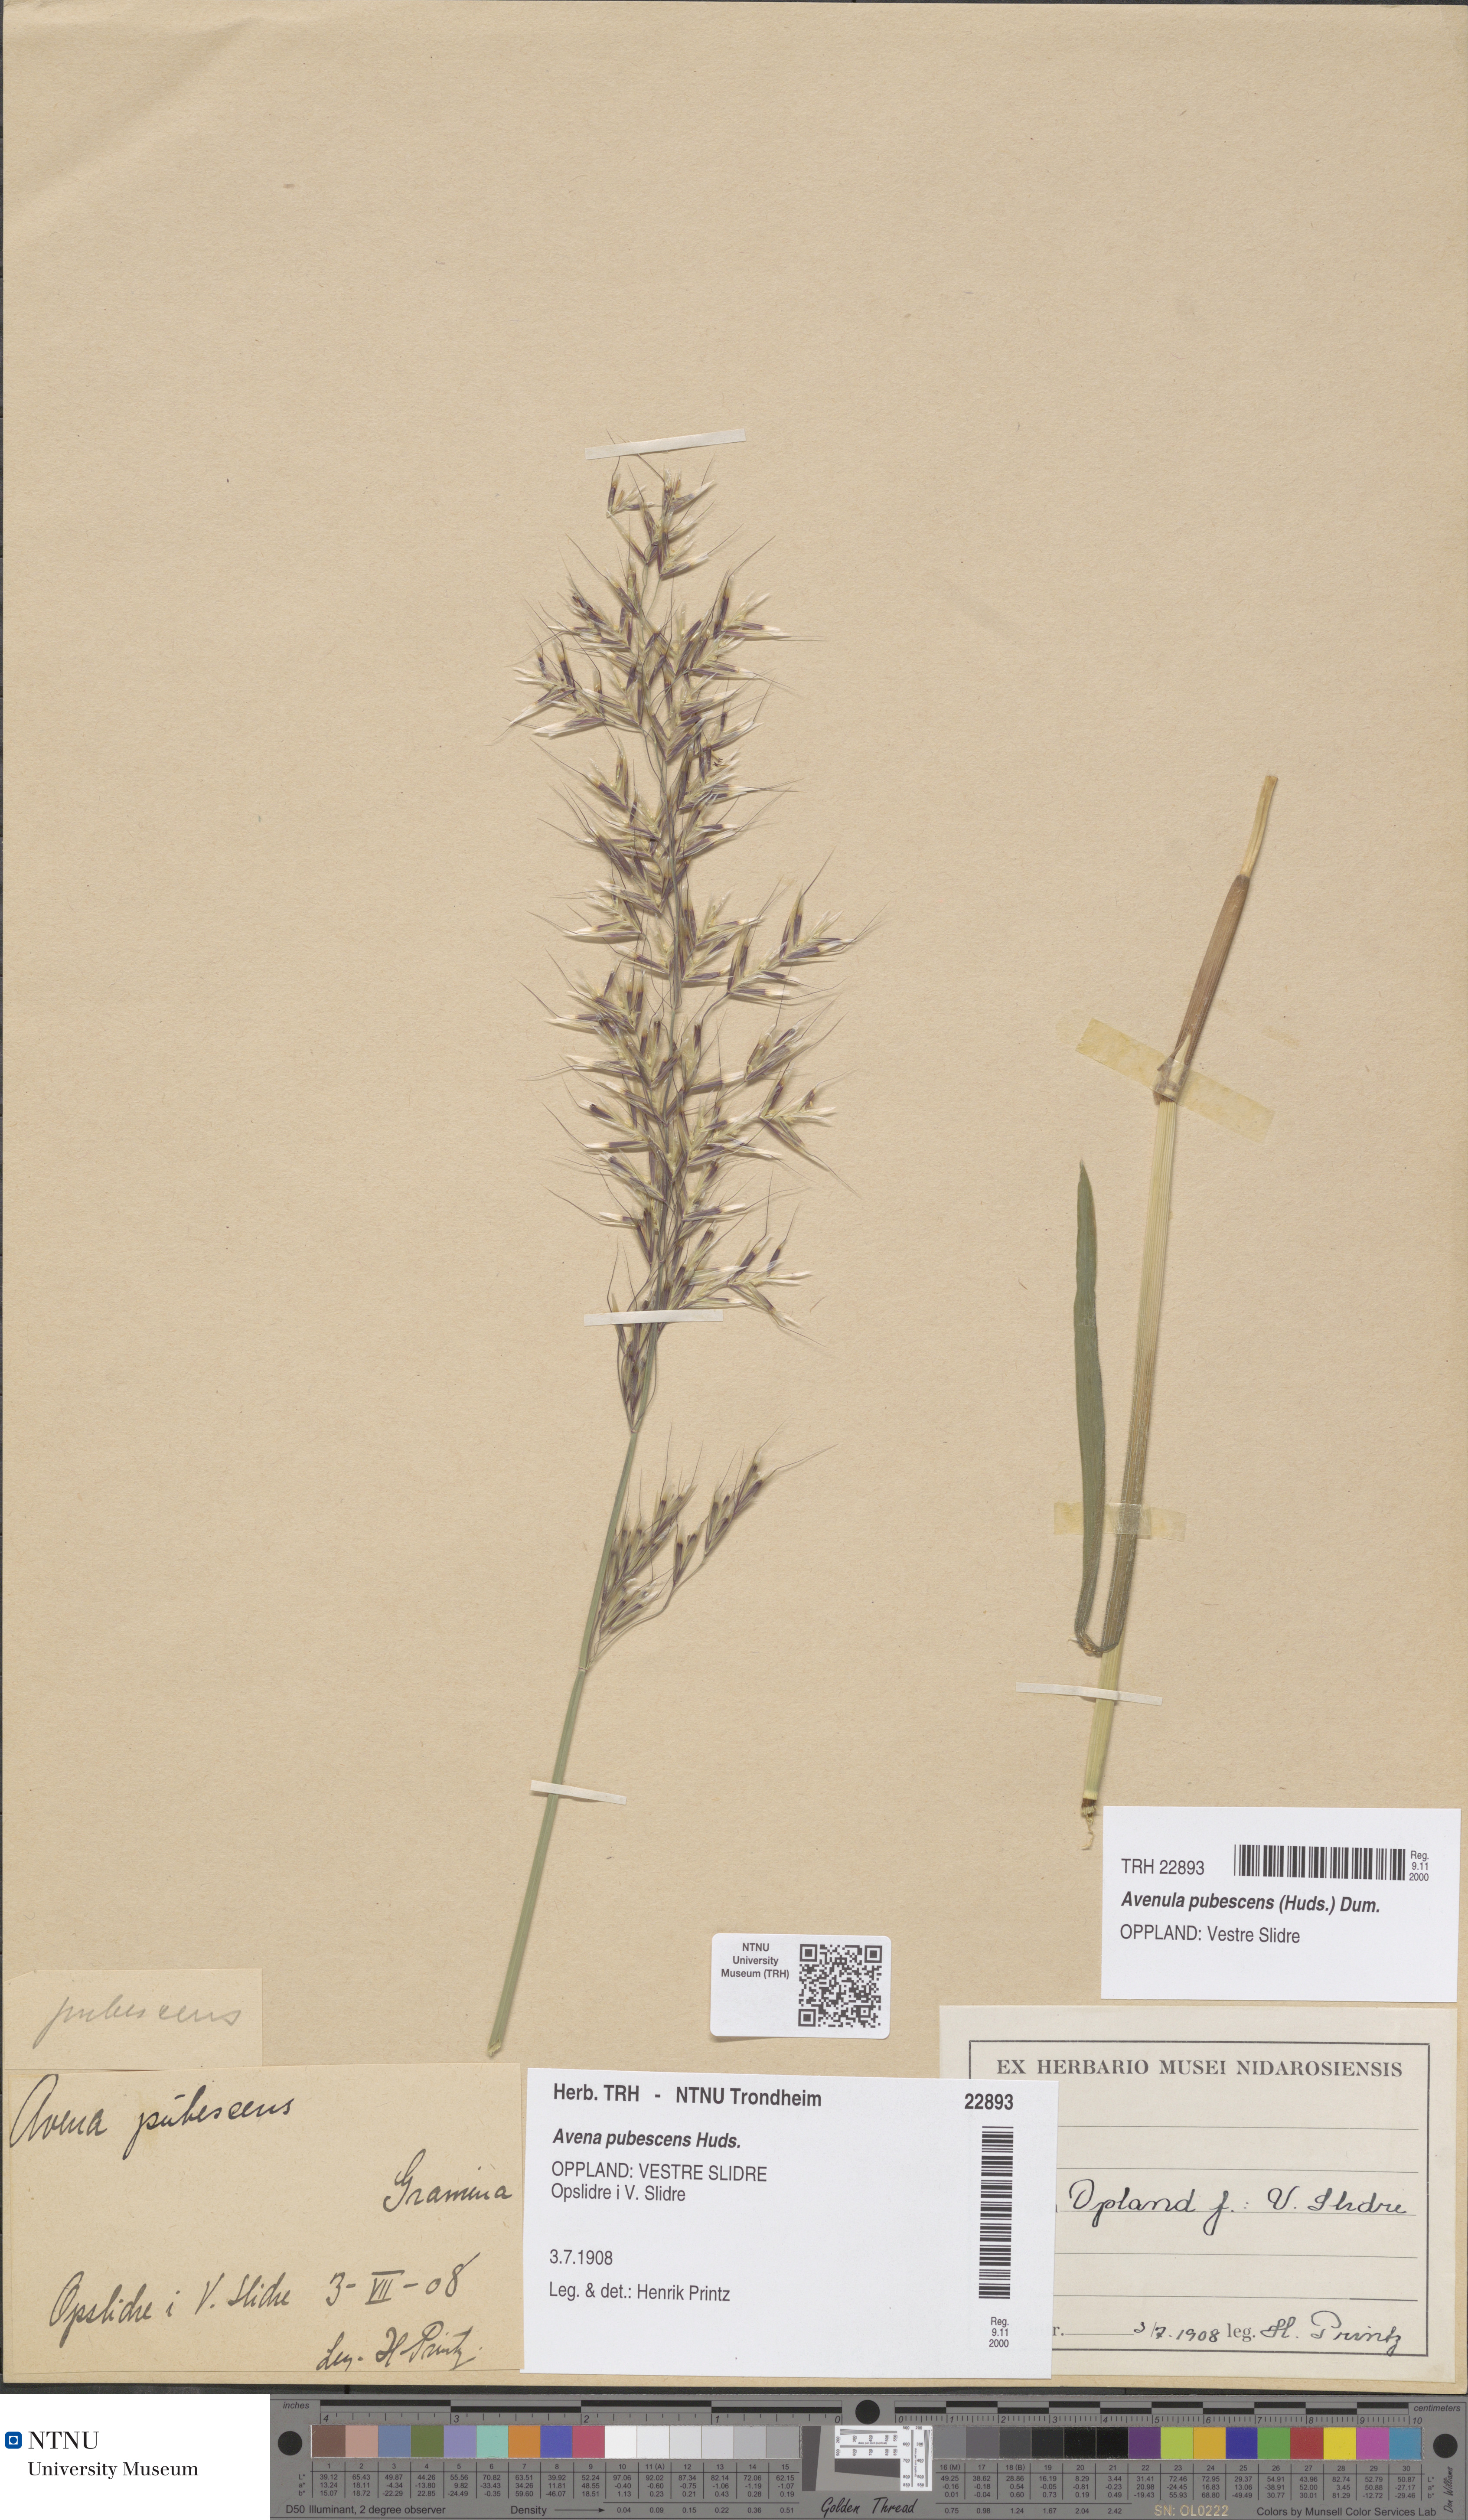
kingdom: Plantae
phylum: Tracheophyta
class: Liliopsida
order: Poales
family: Poaceae
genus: Avenula
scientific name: Avenula pubescens
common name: Downy alpine oatgrass
